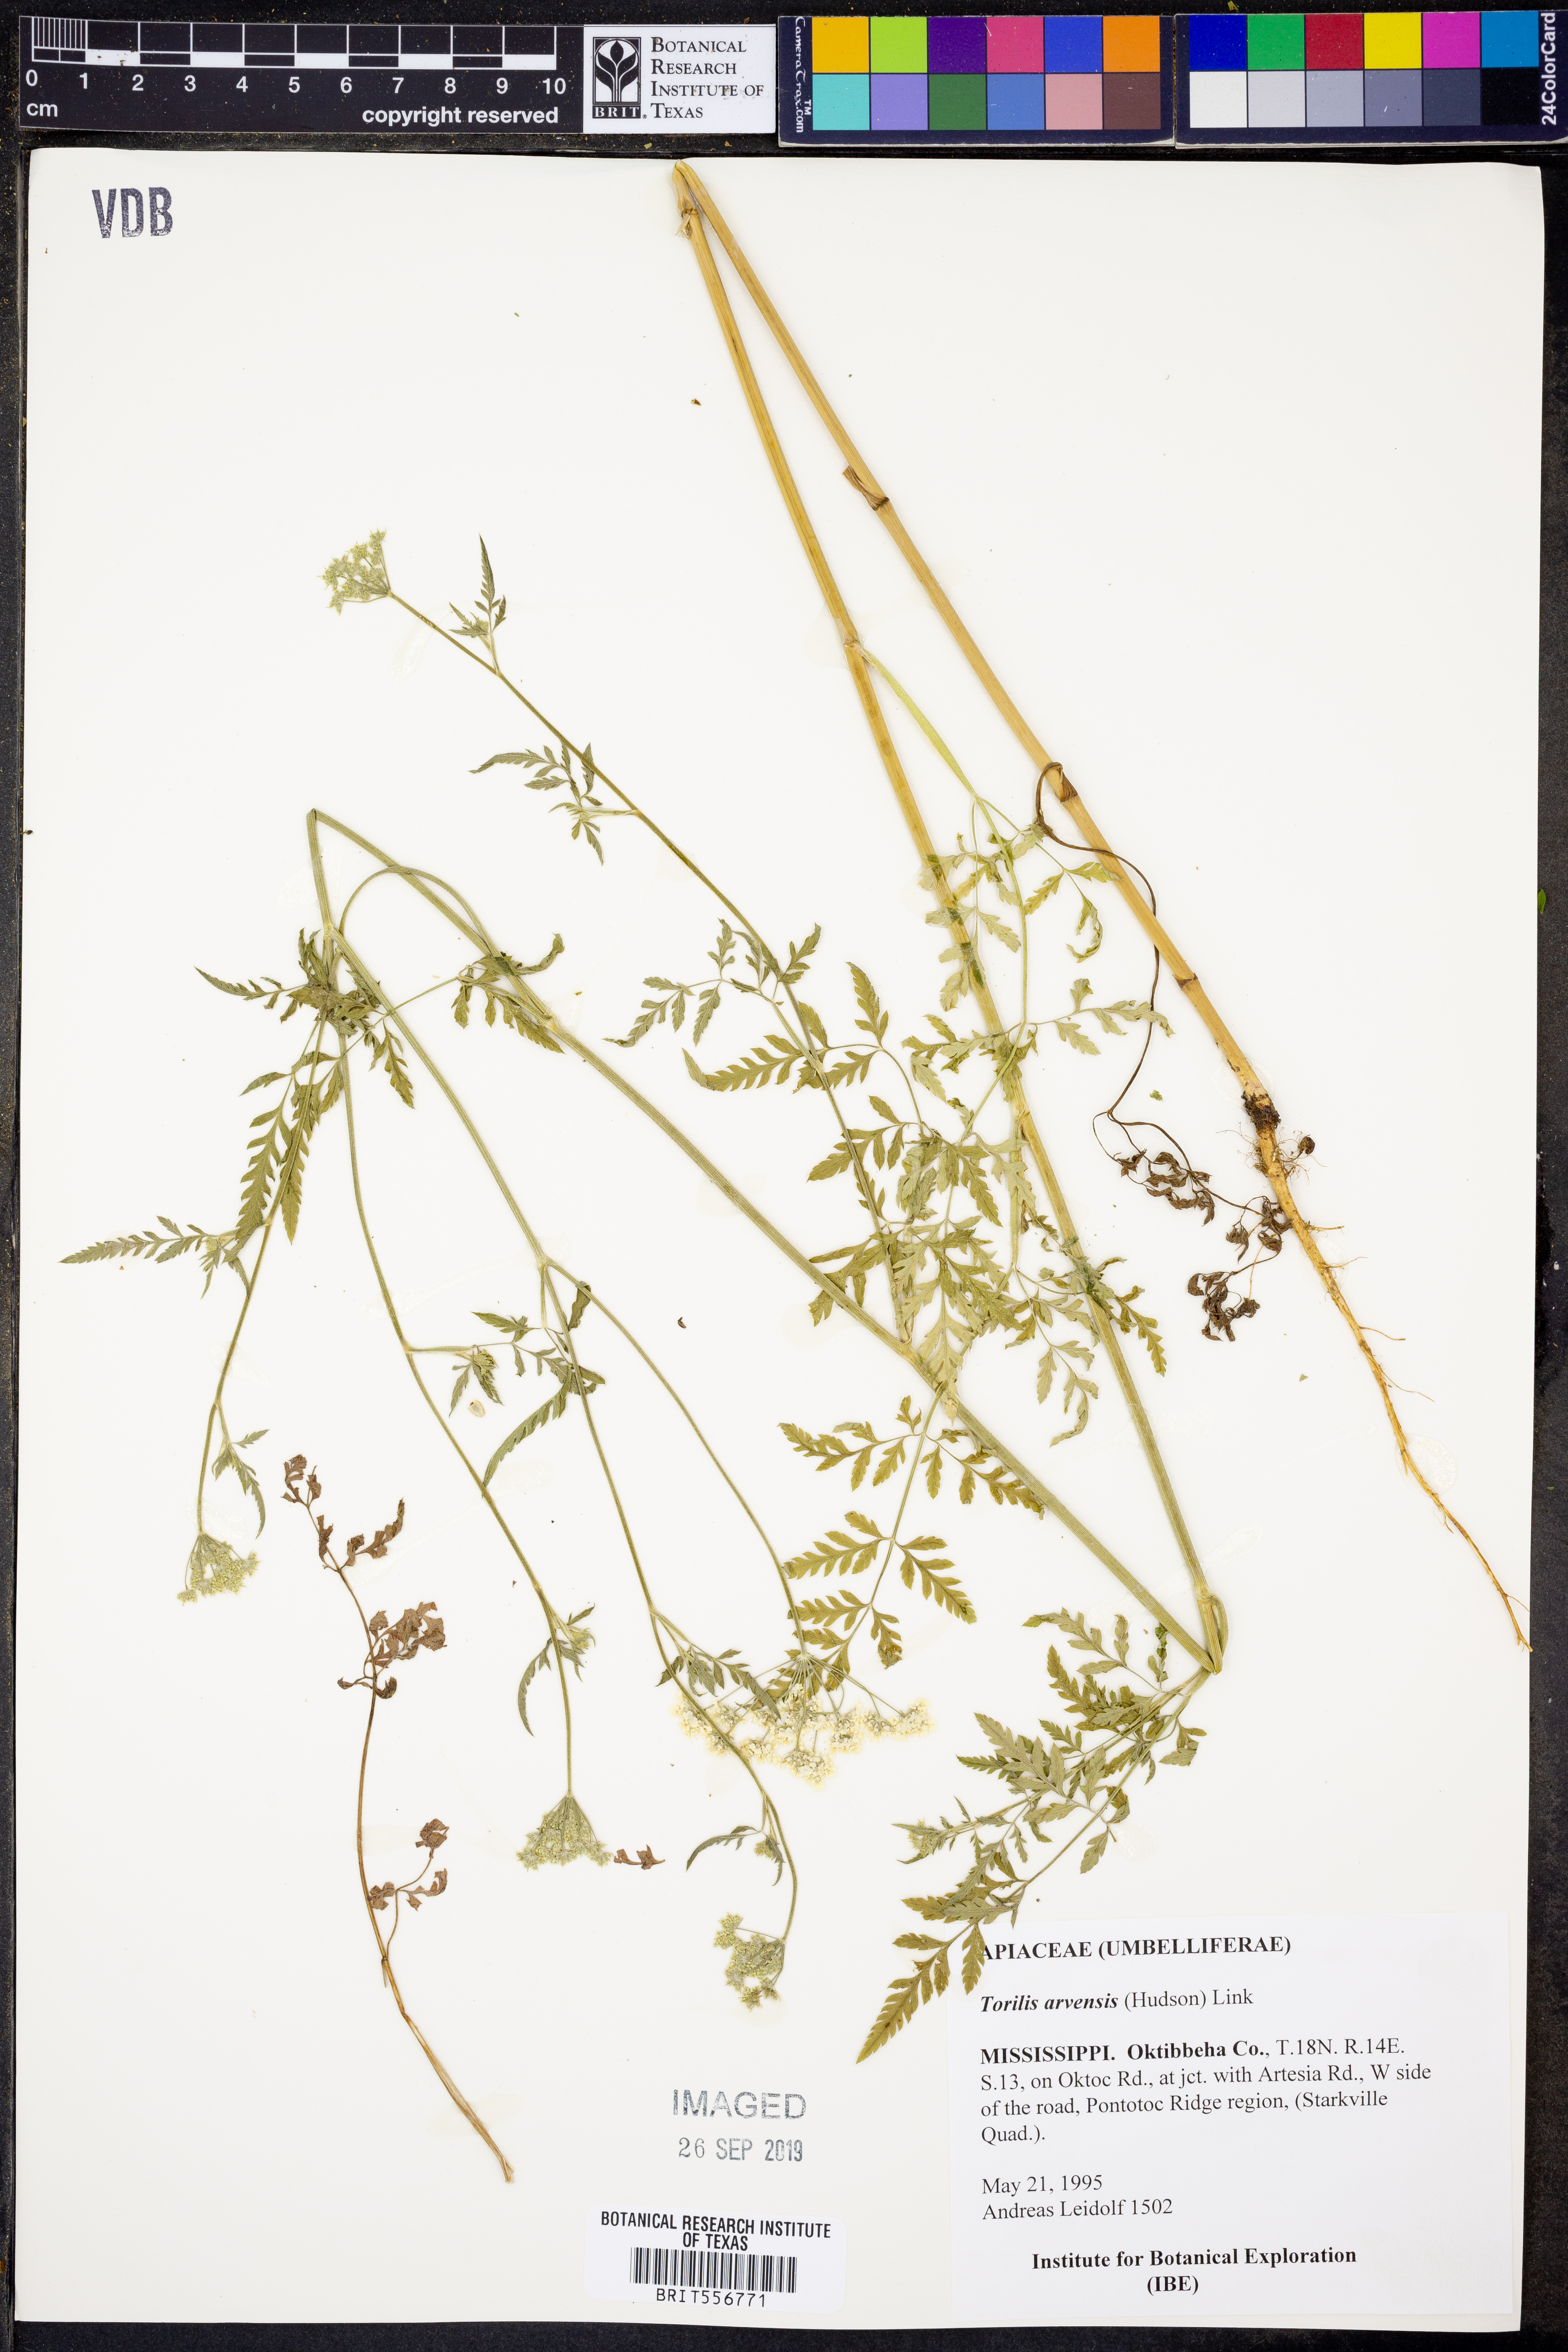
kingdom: Plantae
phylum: Tracheophyta
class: Magnoliopsida
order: Apiales
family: Apiaceae
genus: Torilis
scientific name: Torilis arvensis
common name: Spreading hedge-parsley
